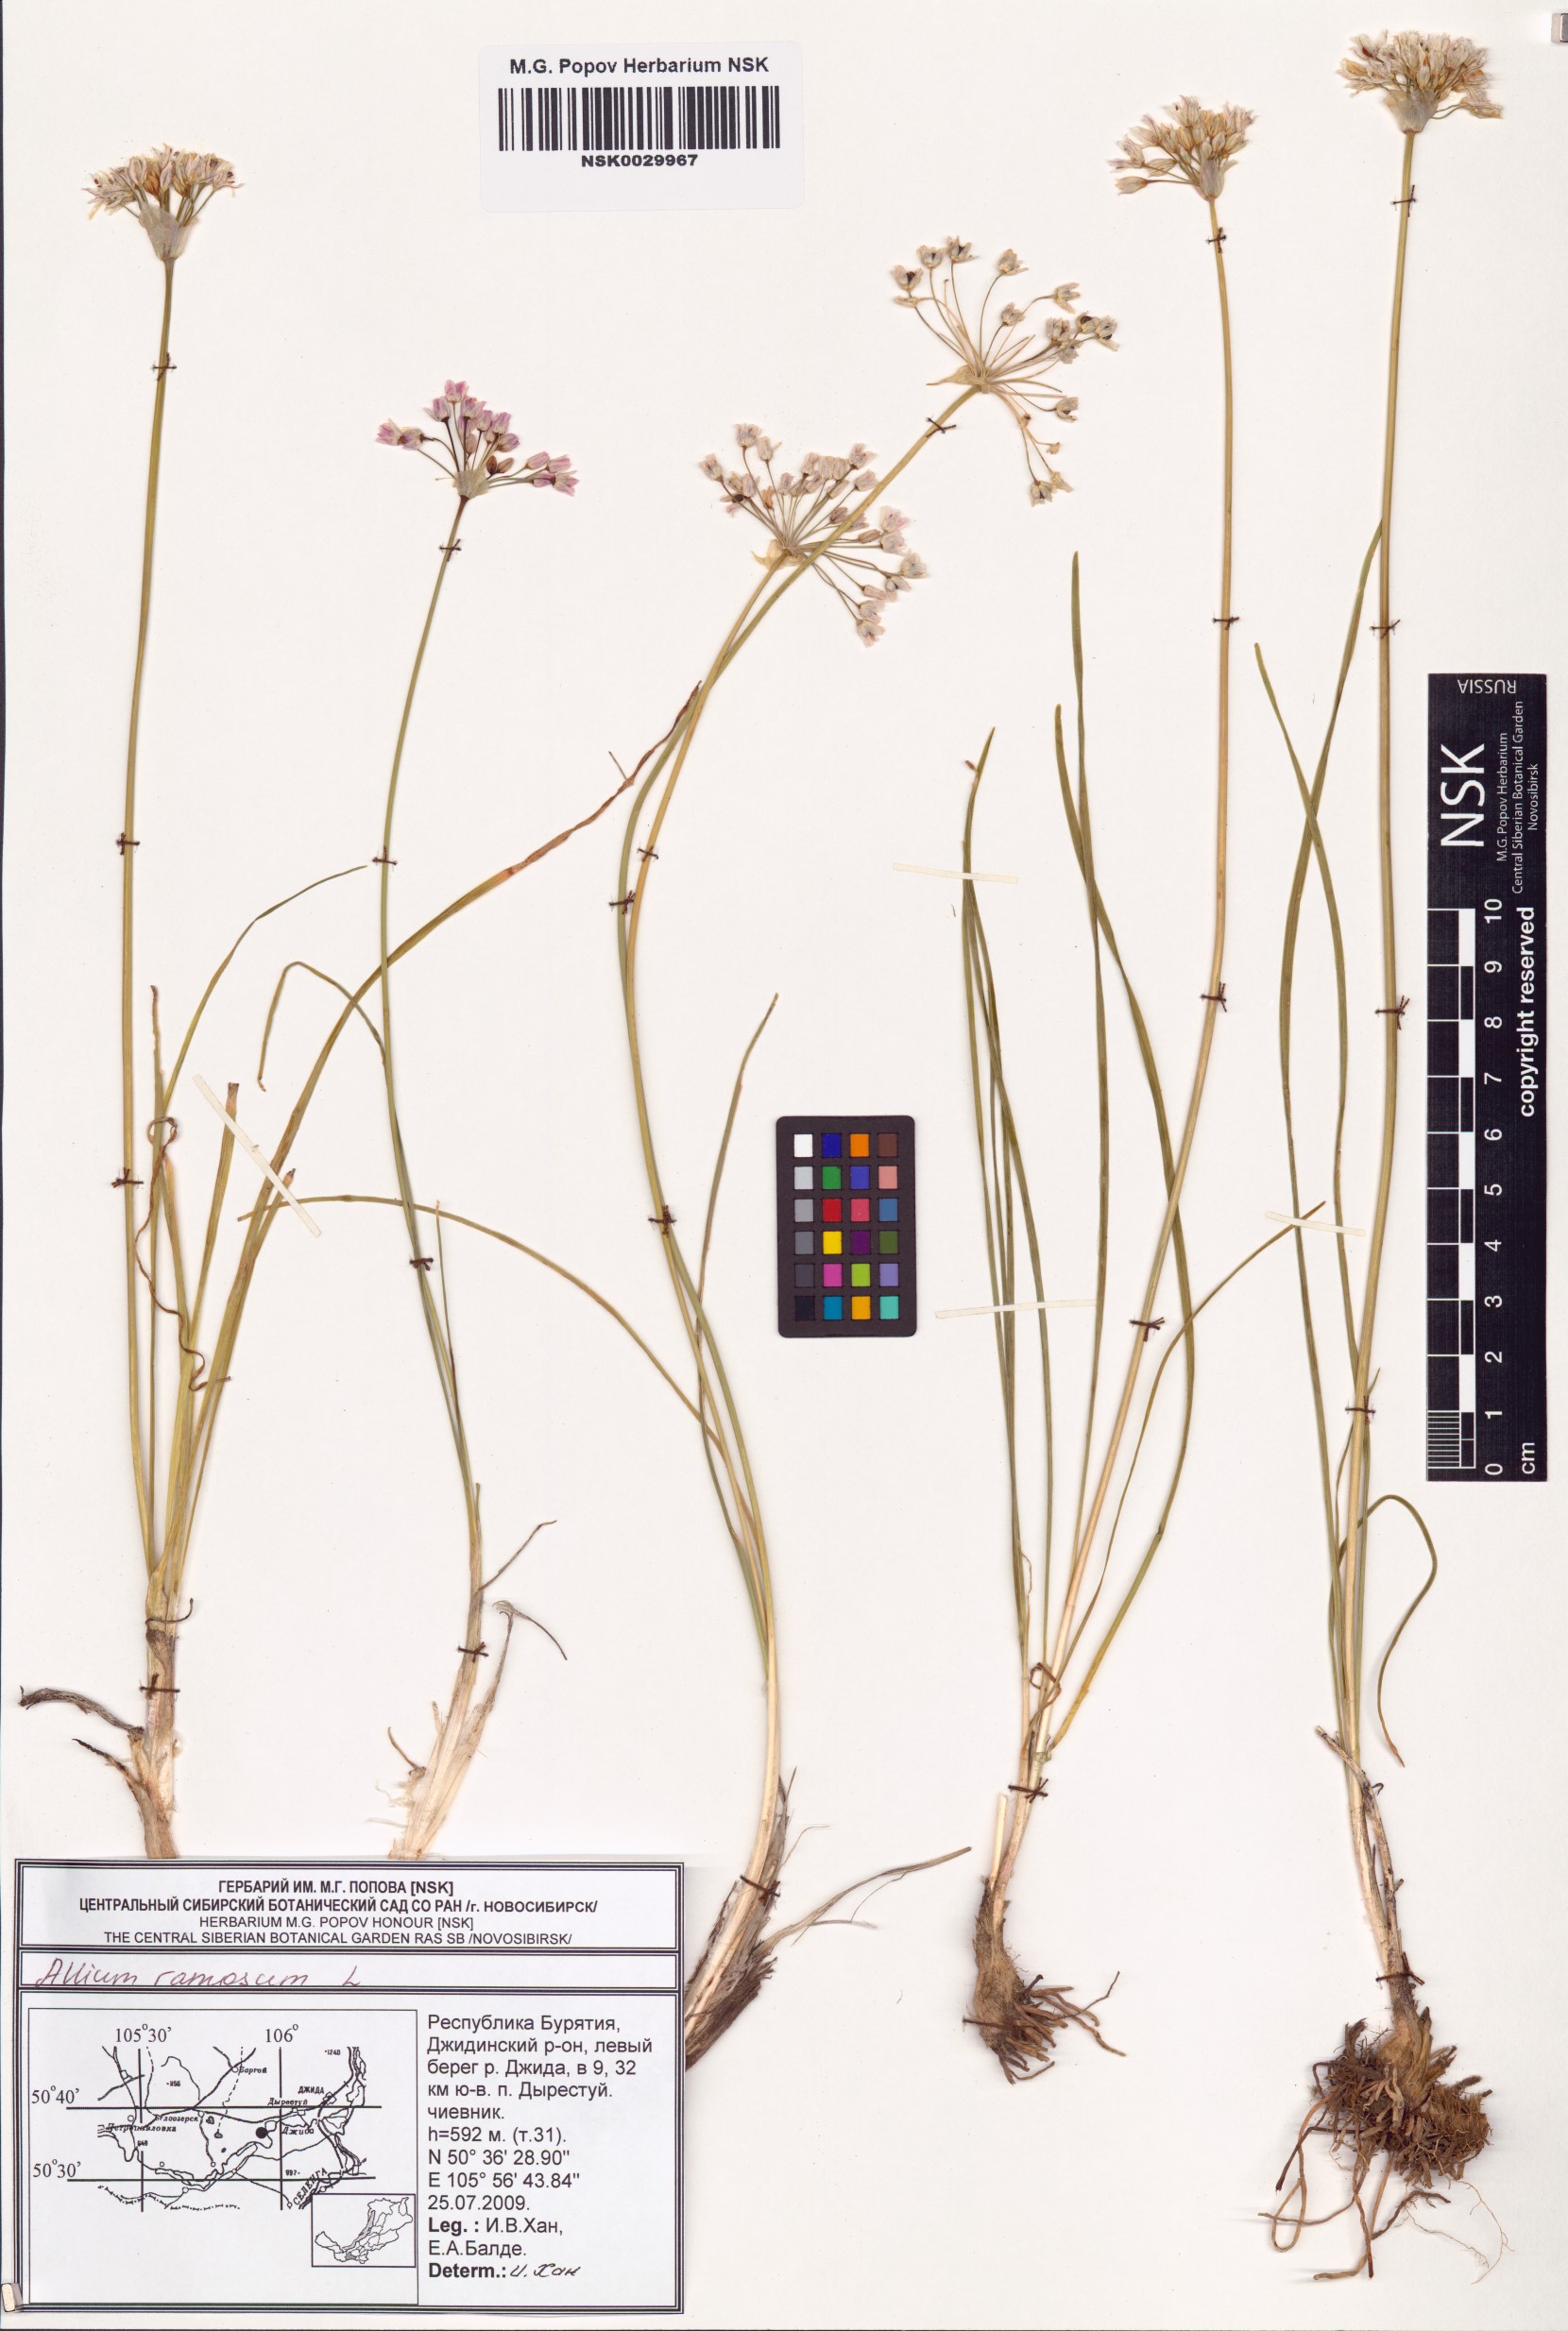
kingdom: Plantae
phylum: Tracheophyta
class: Liliopsida
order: Asparagales
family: Amaryllidaceae
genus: Allium
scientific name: Allium ramosum
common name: Fragrant garlic
